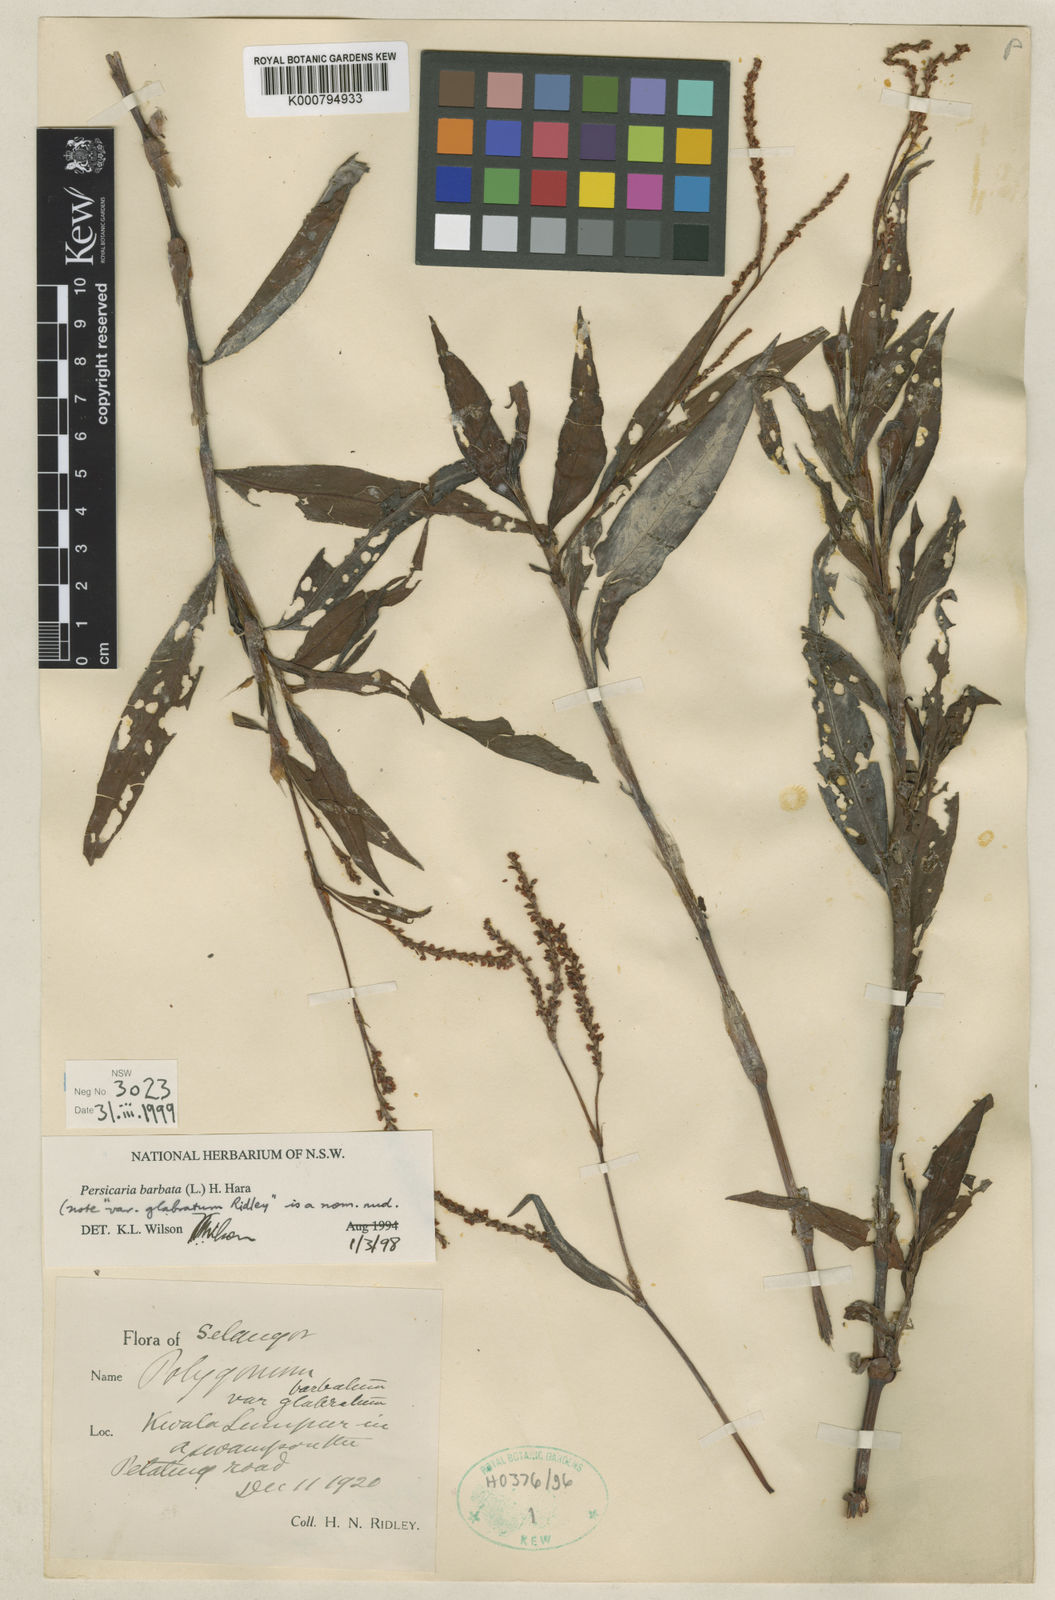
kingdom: Plantae
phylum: Tracheophyta
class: Magnoliopsida
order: Caryophyllales
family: Polygonaceae
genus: Persicaria
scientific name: Persicaria barbata
